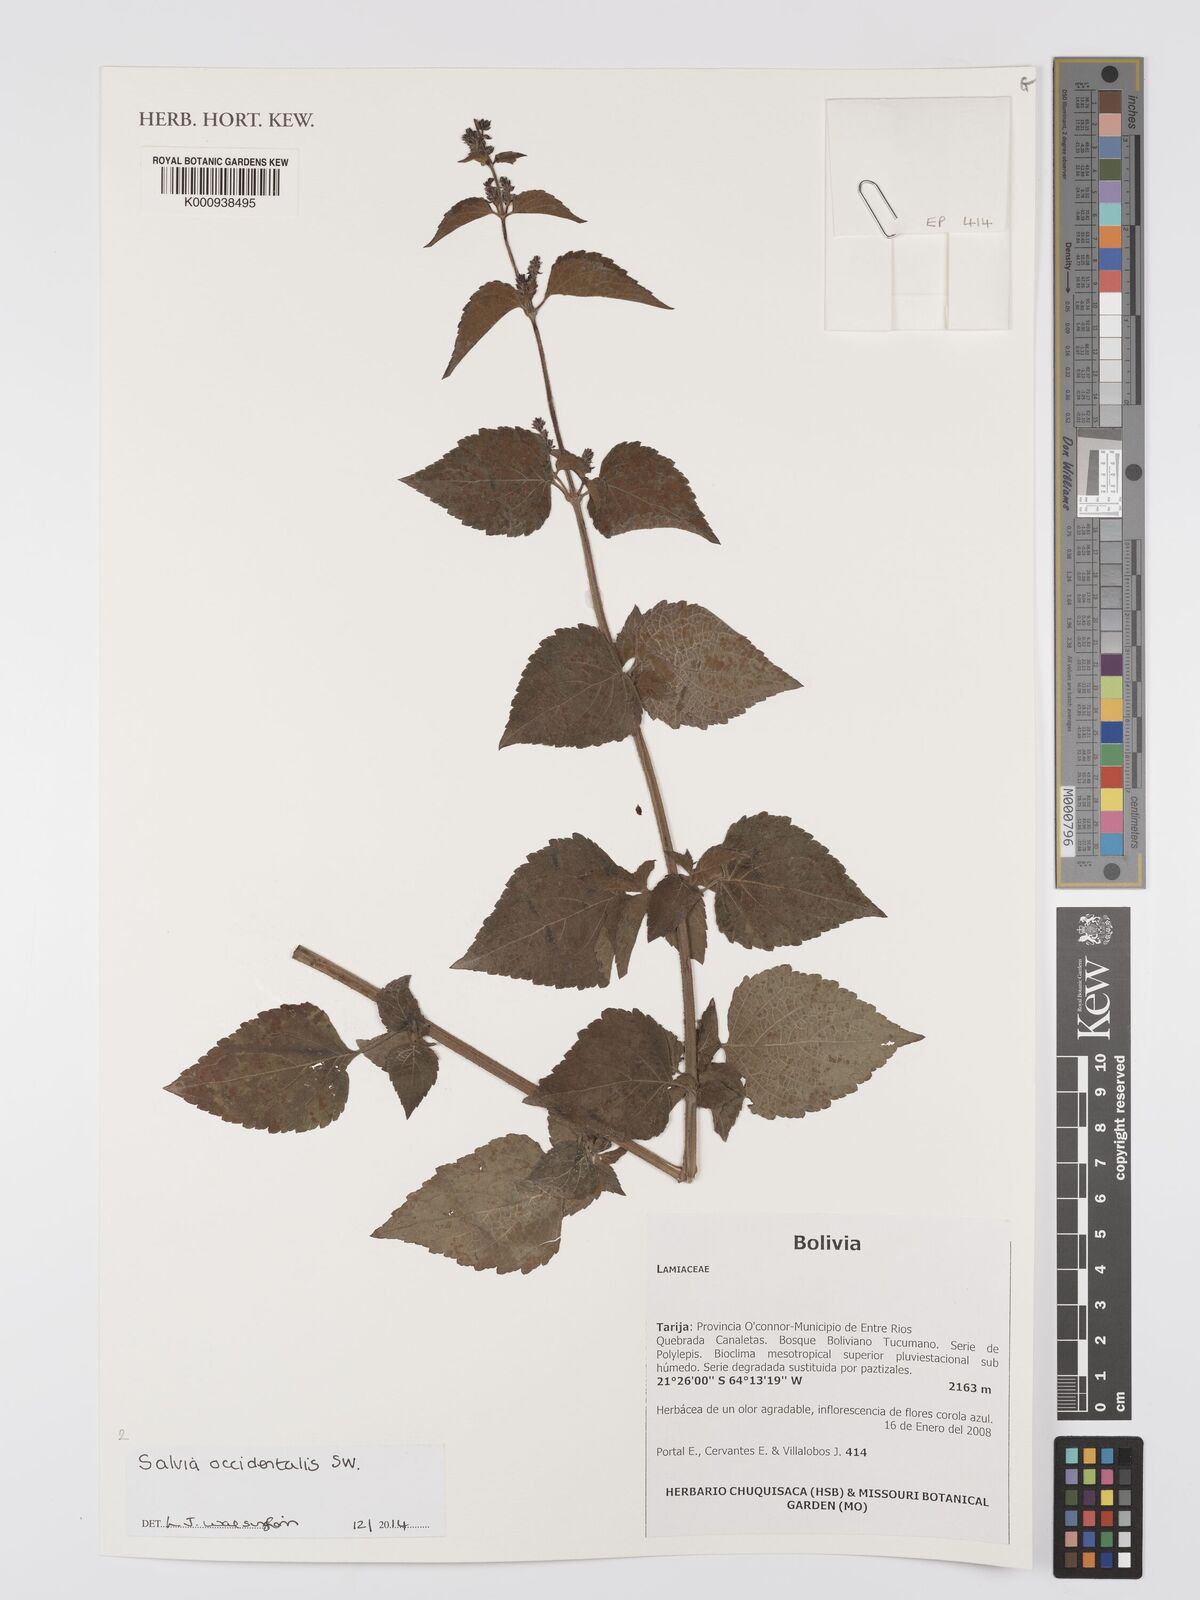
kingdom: Plantae
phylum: Tracheophyta
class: Magnoliopsida
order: Lamiales
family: Lamiaceae
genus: Salvia
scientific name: Salvia occidentalis
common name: West indian sage
